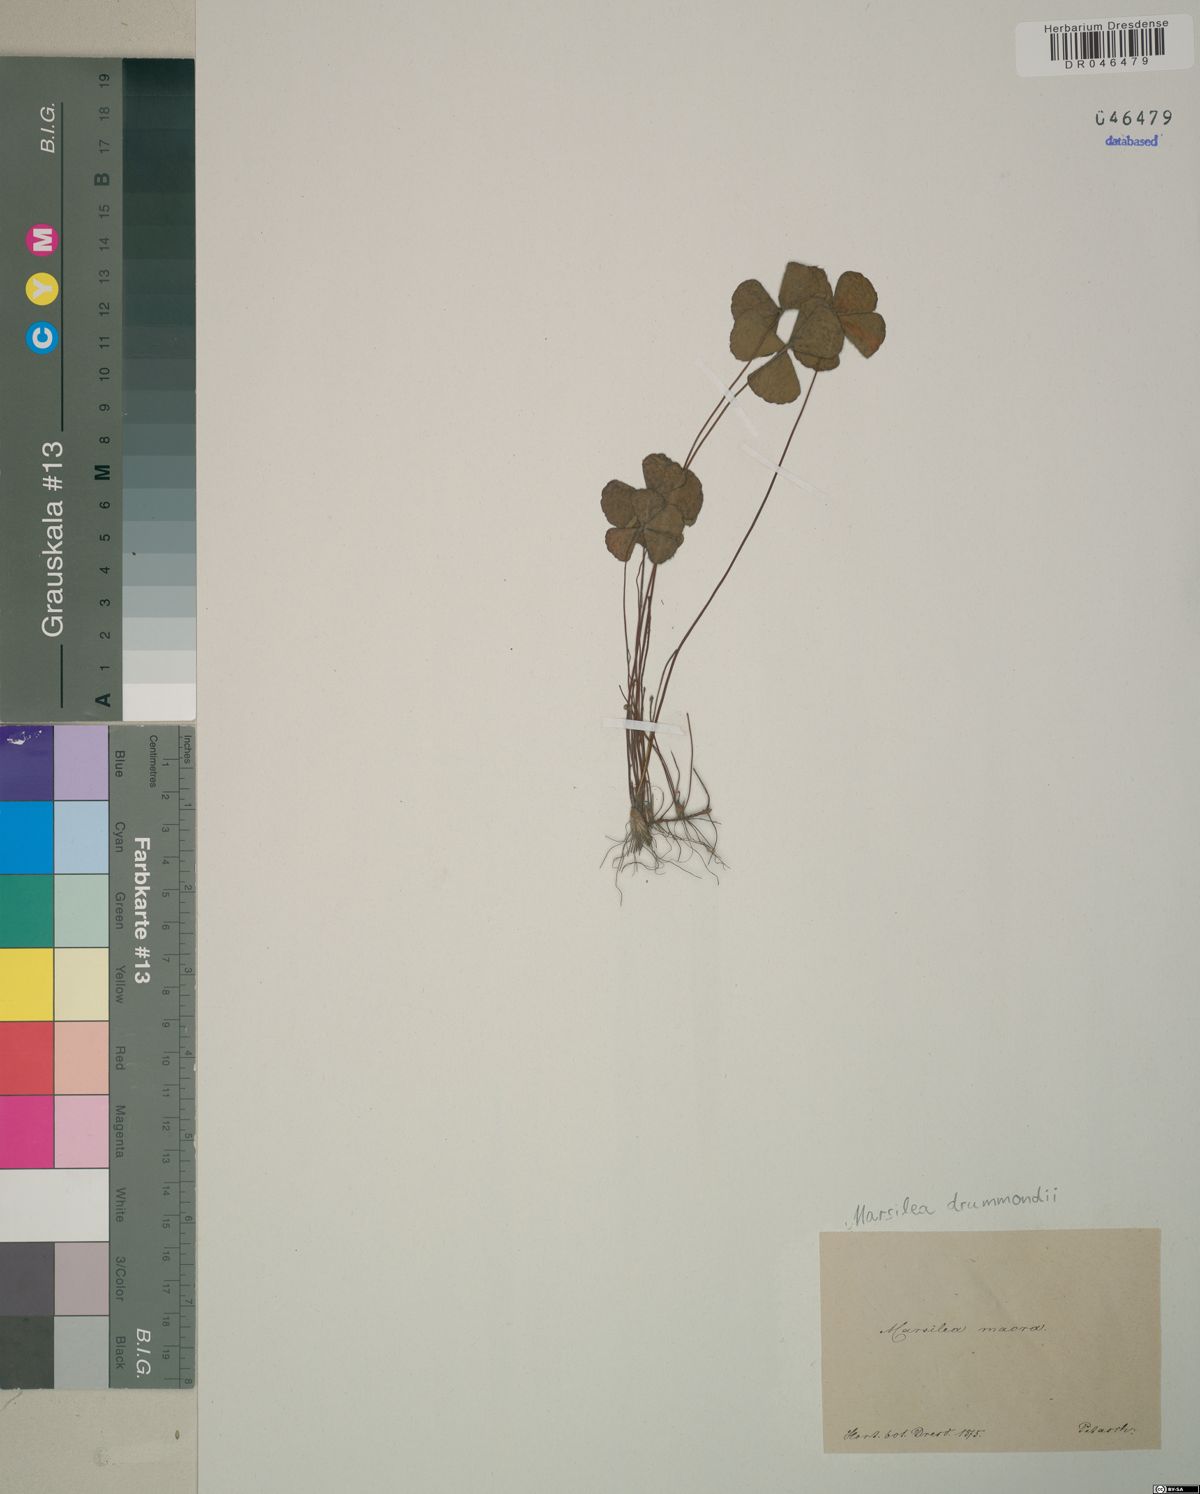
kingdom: Plantae
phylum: Tracheophyta
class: Polypodiopsida
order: Salviniales
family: Marsileaceae
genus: Marsilea
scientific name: Marsilea drummondii
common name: Nardoo
